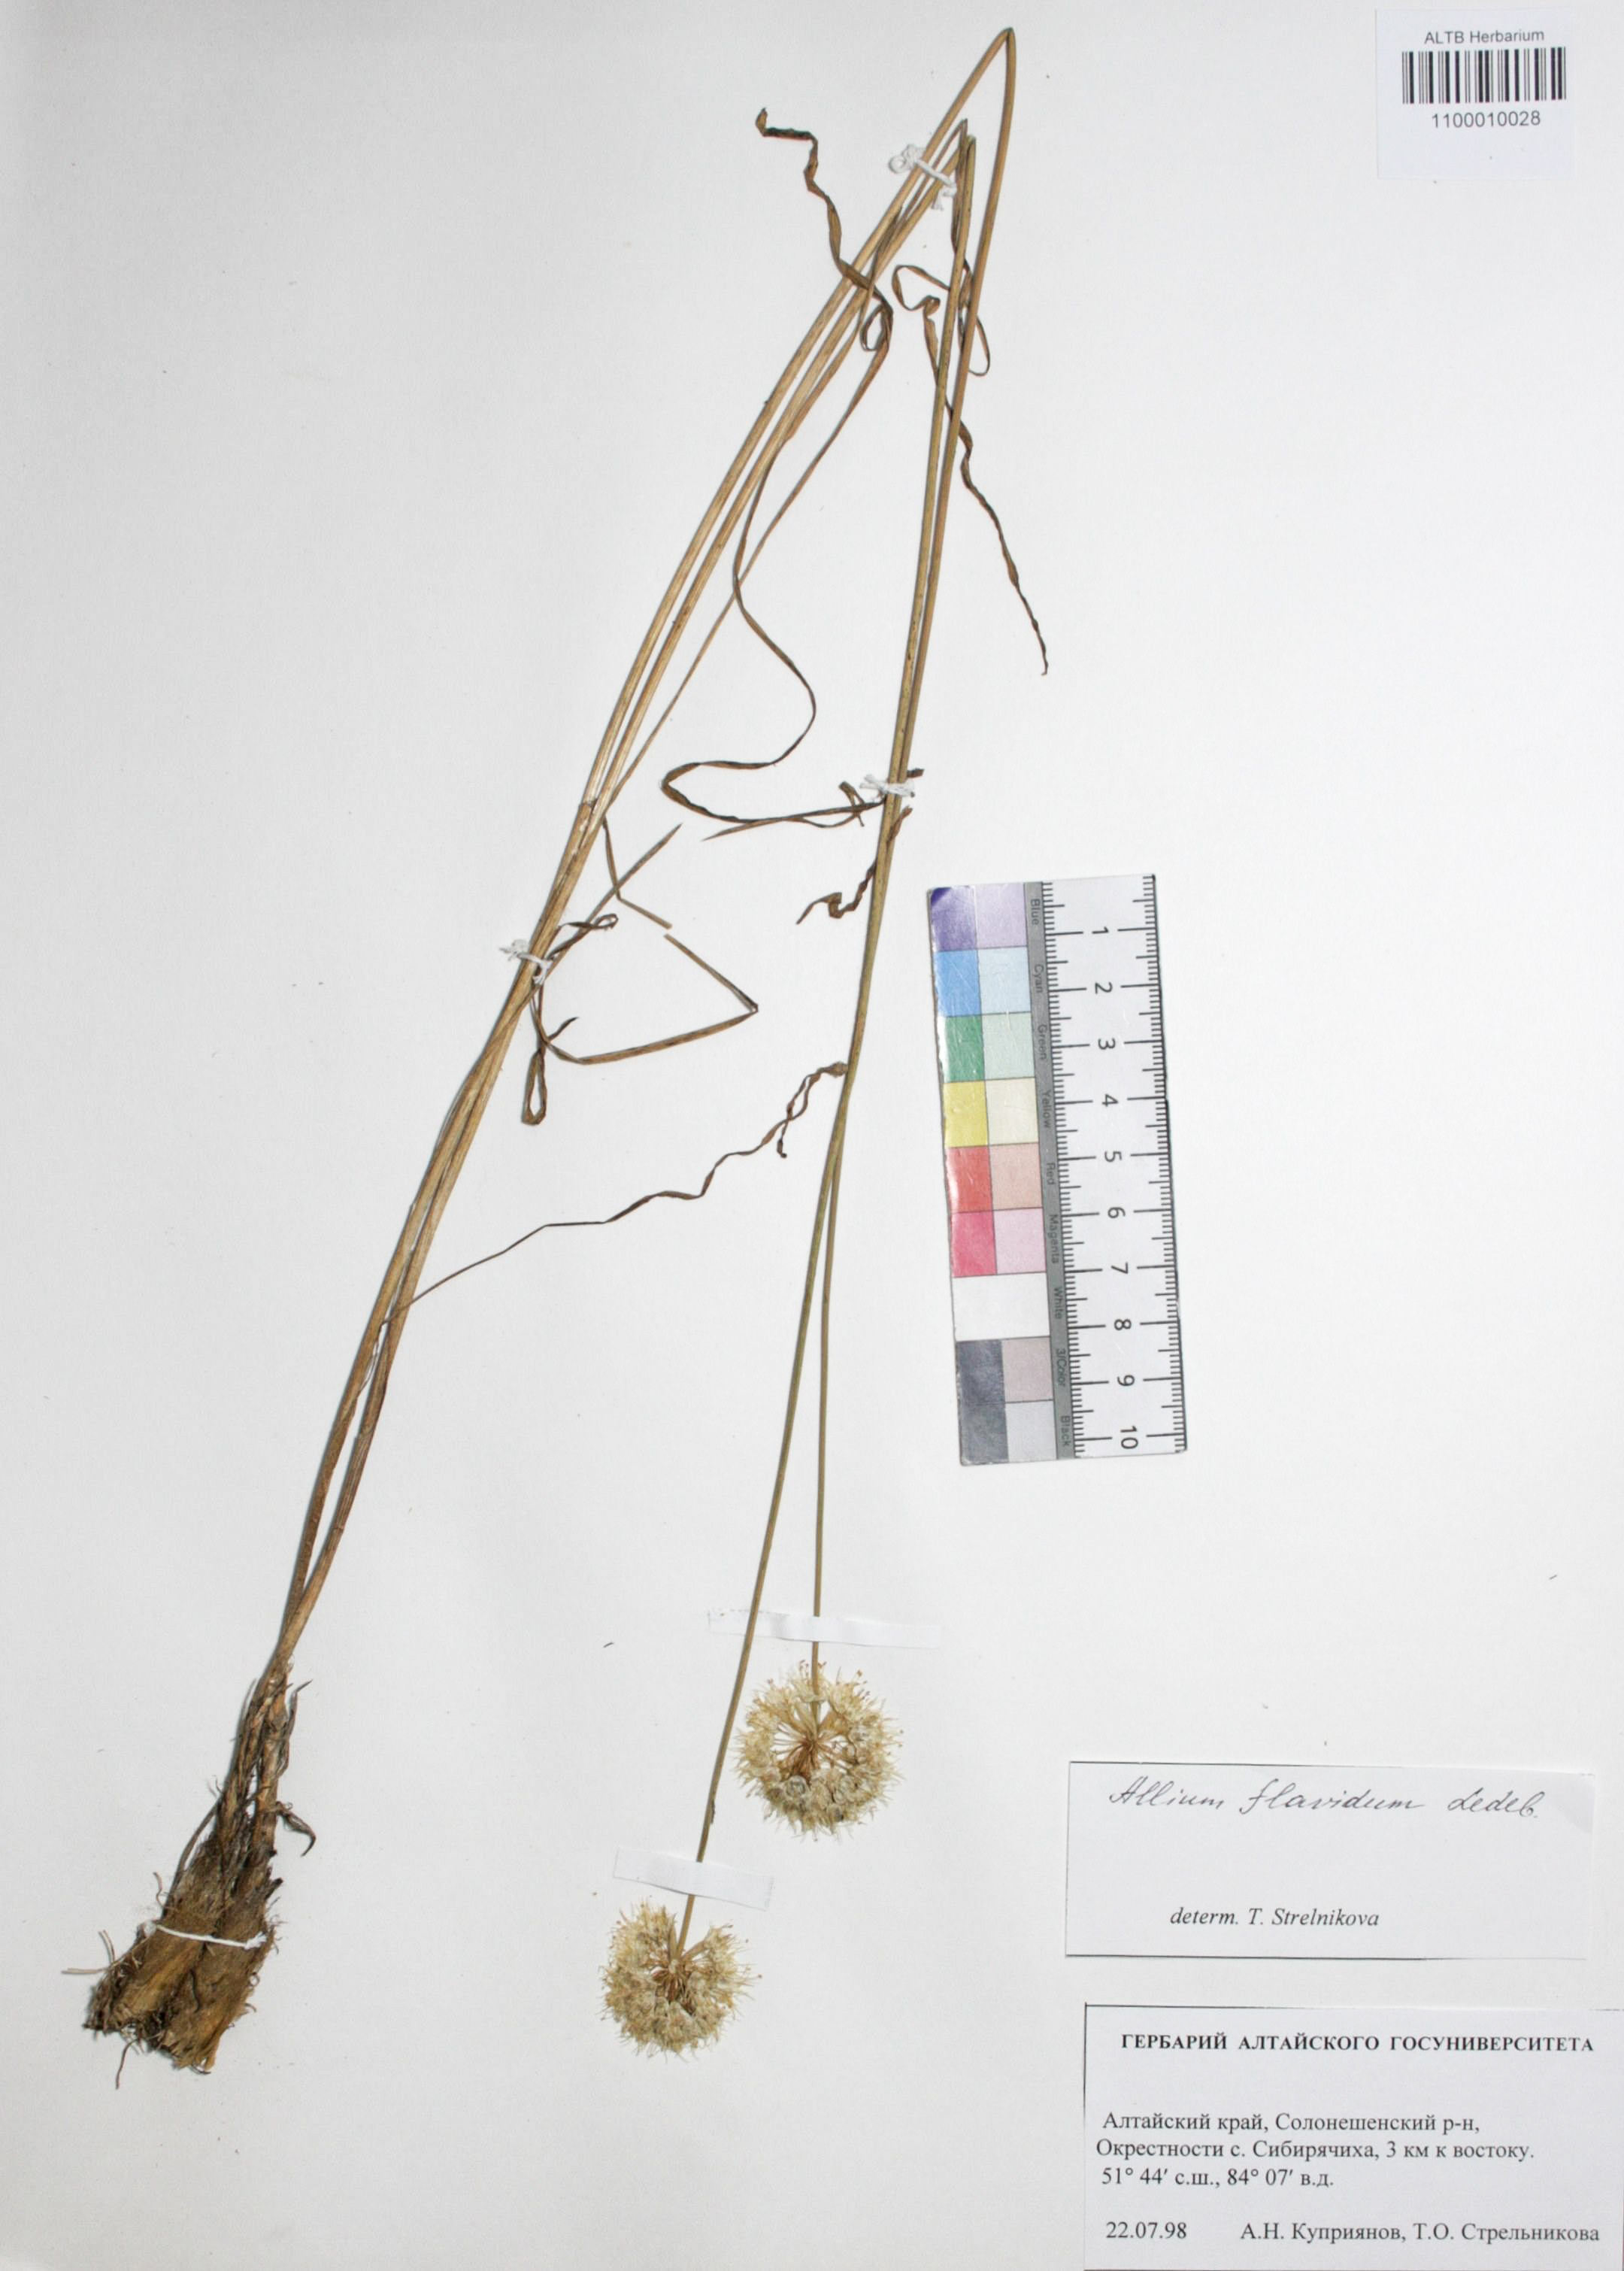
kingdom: Plantae
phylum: Tracheophyta
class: Liliopsida
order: Asparagales
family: Amaryllidaceae
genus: Allium
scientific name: Allium flavidum
